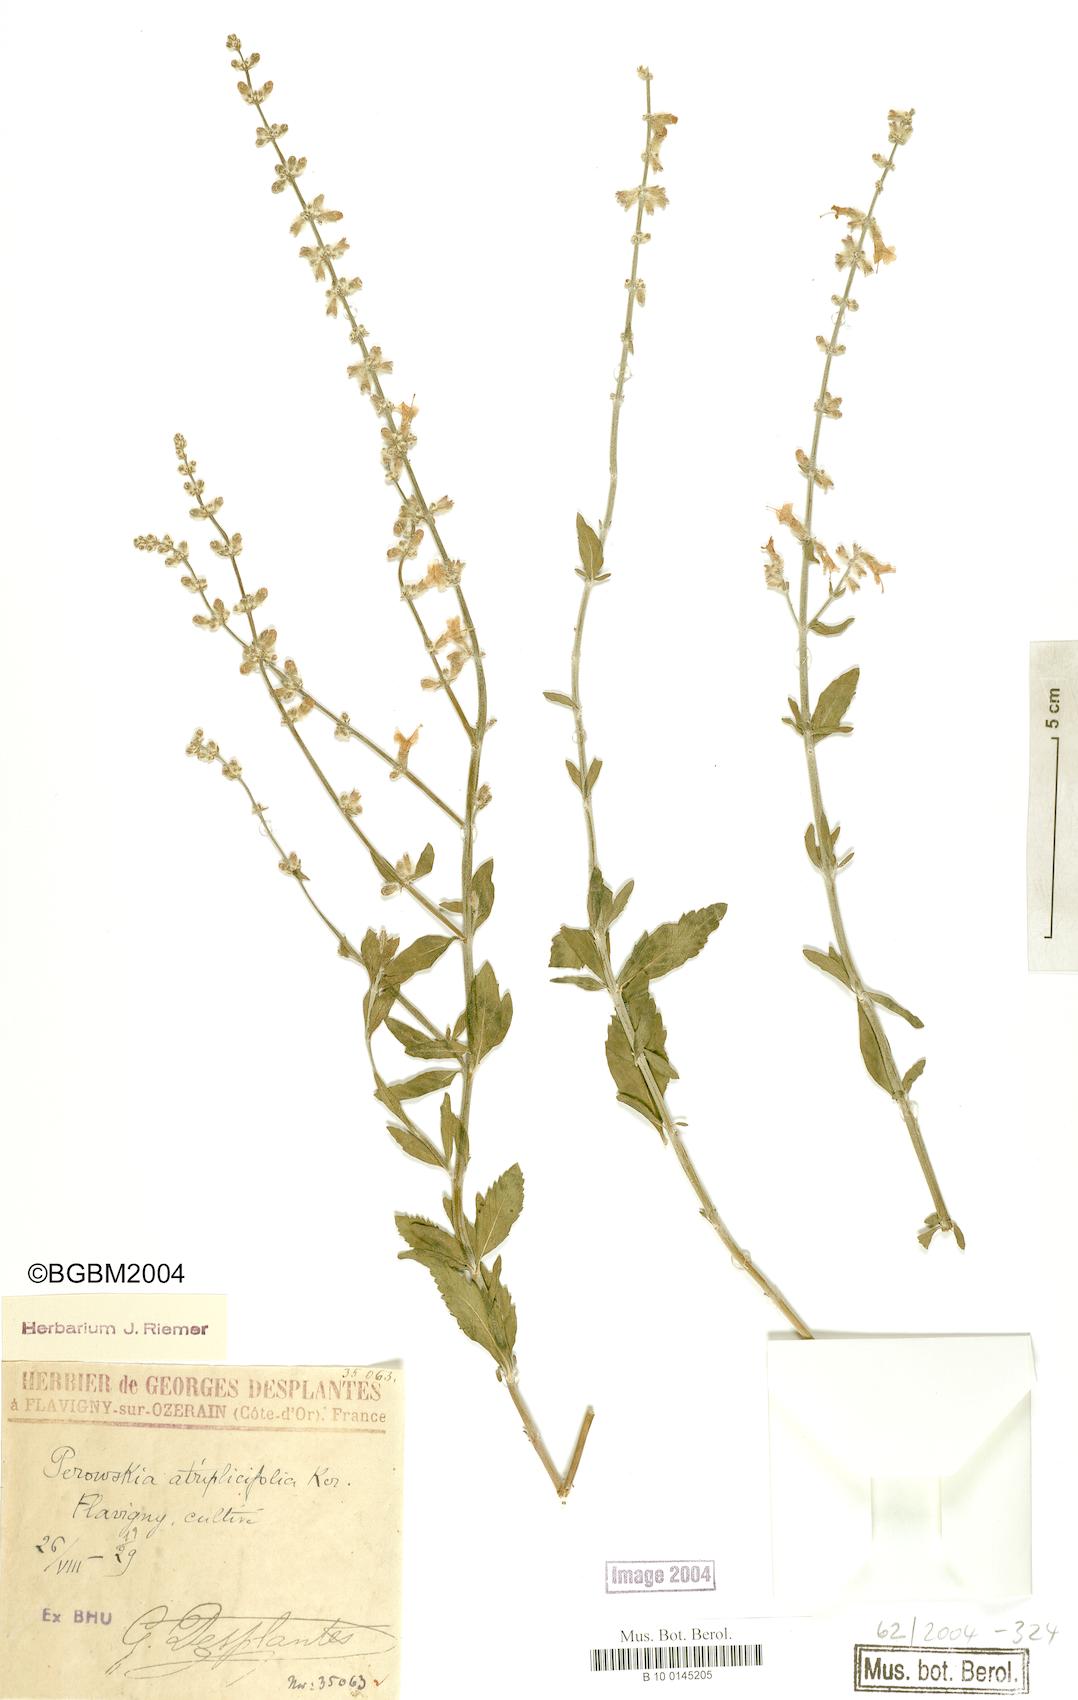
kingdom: Plantae
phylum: Tracheophyta
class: Magnoliopsida
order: Lamiales
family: Lamiaceae
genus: Salvia
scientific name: Salvia yangii
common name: Russian sage
